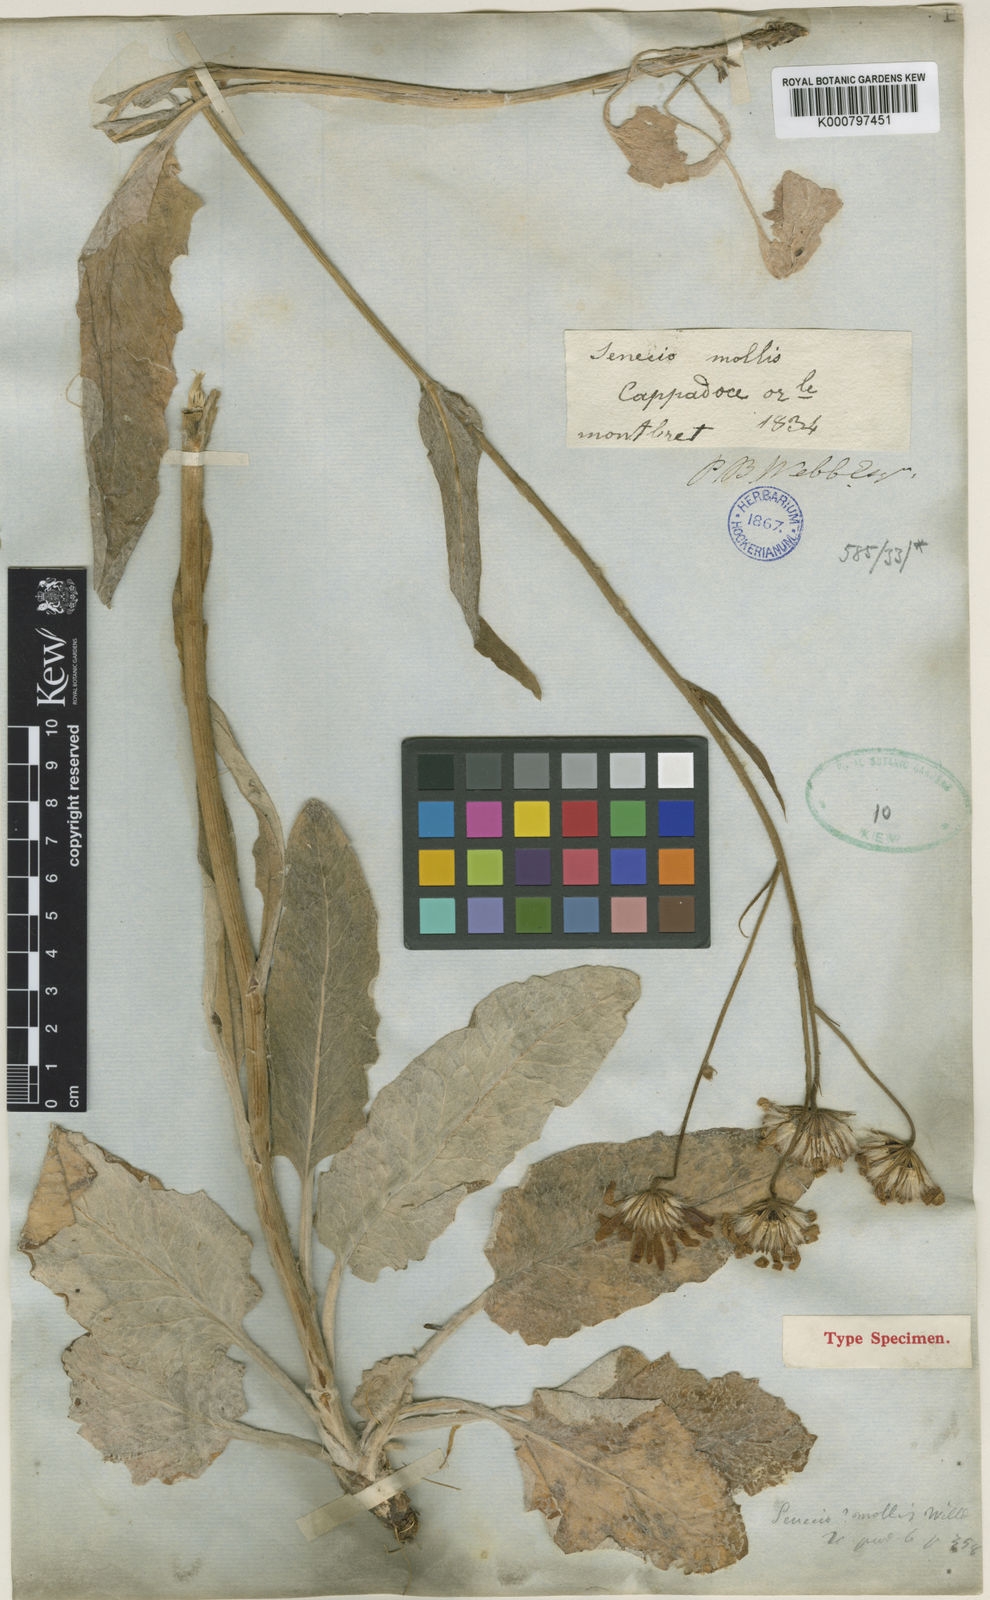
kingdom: Plantae
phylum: Tracheophyta
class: Magnoliopsida
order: Asterales
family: Asteraceae
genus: Turanecio
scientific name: Turanecio hypochionaeus
